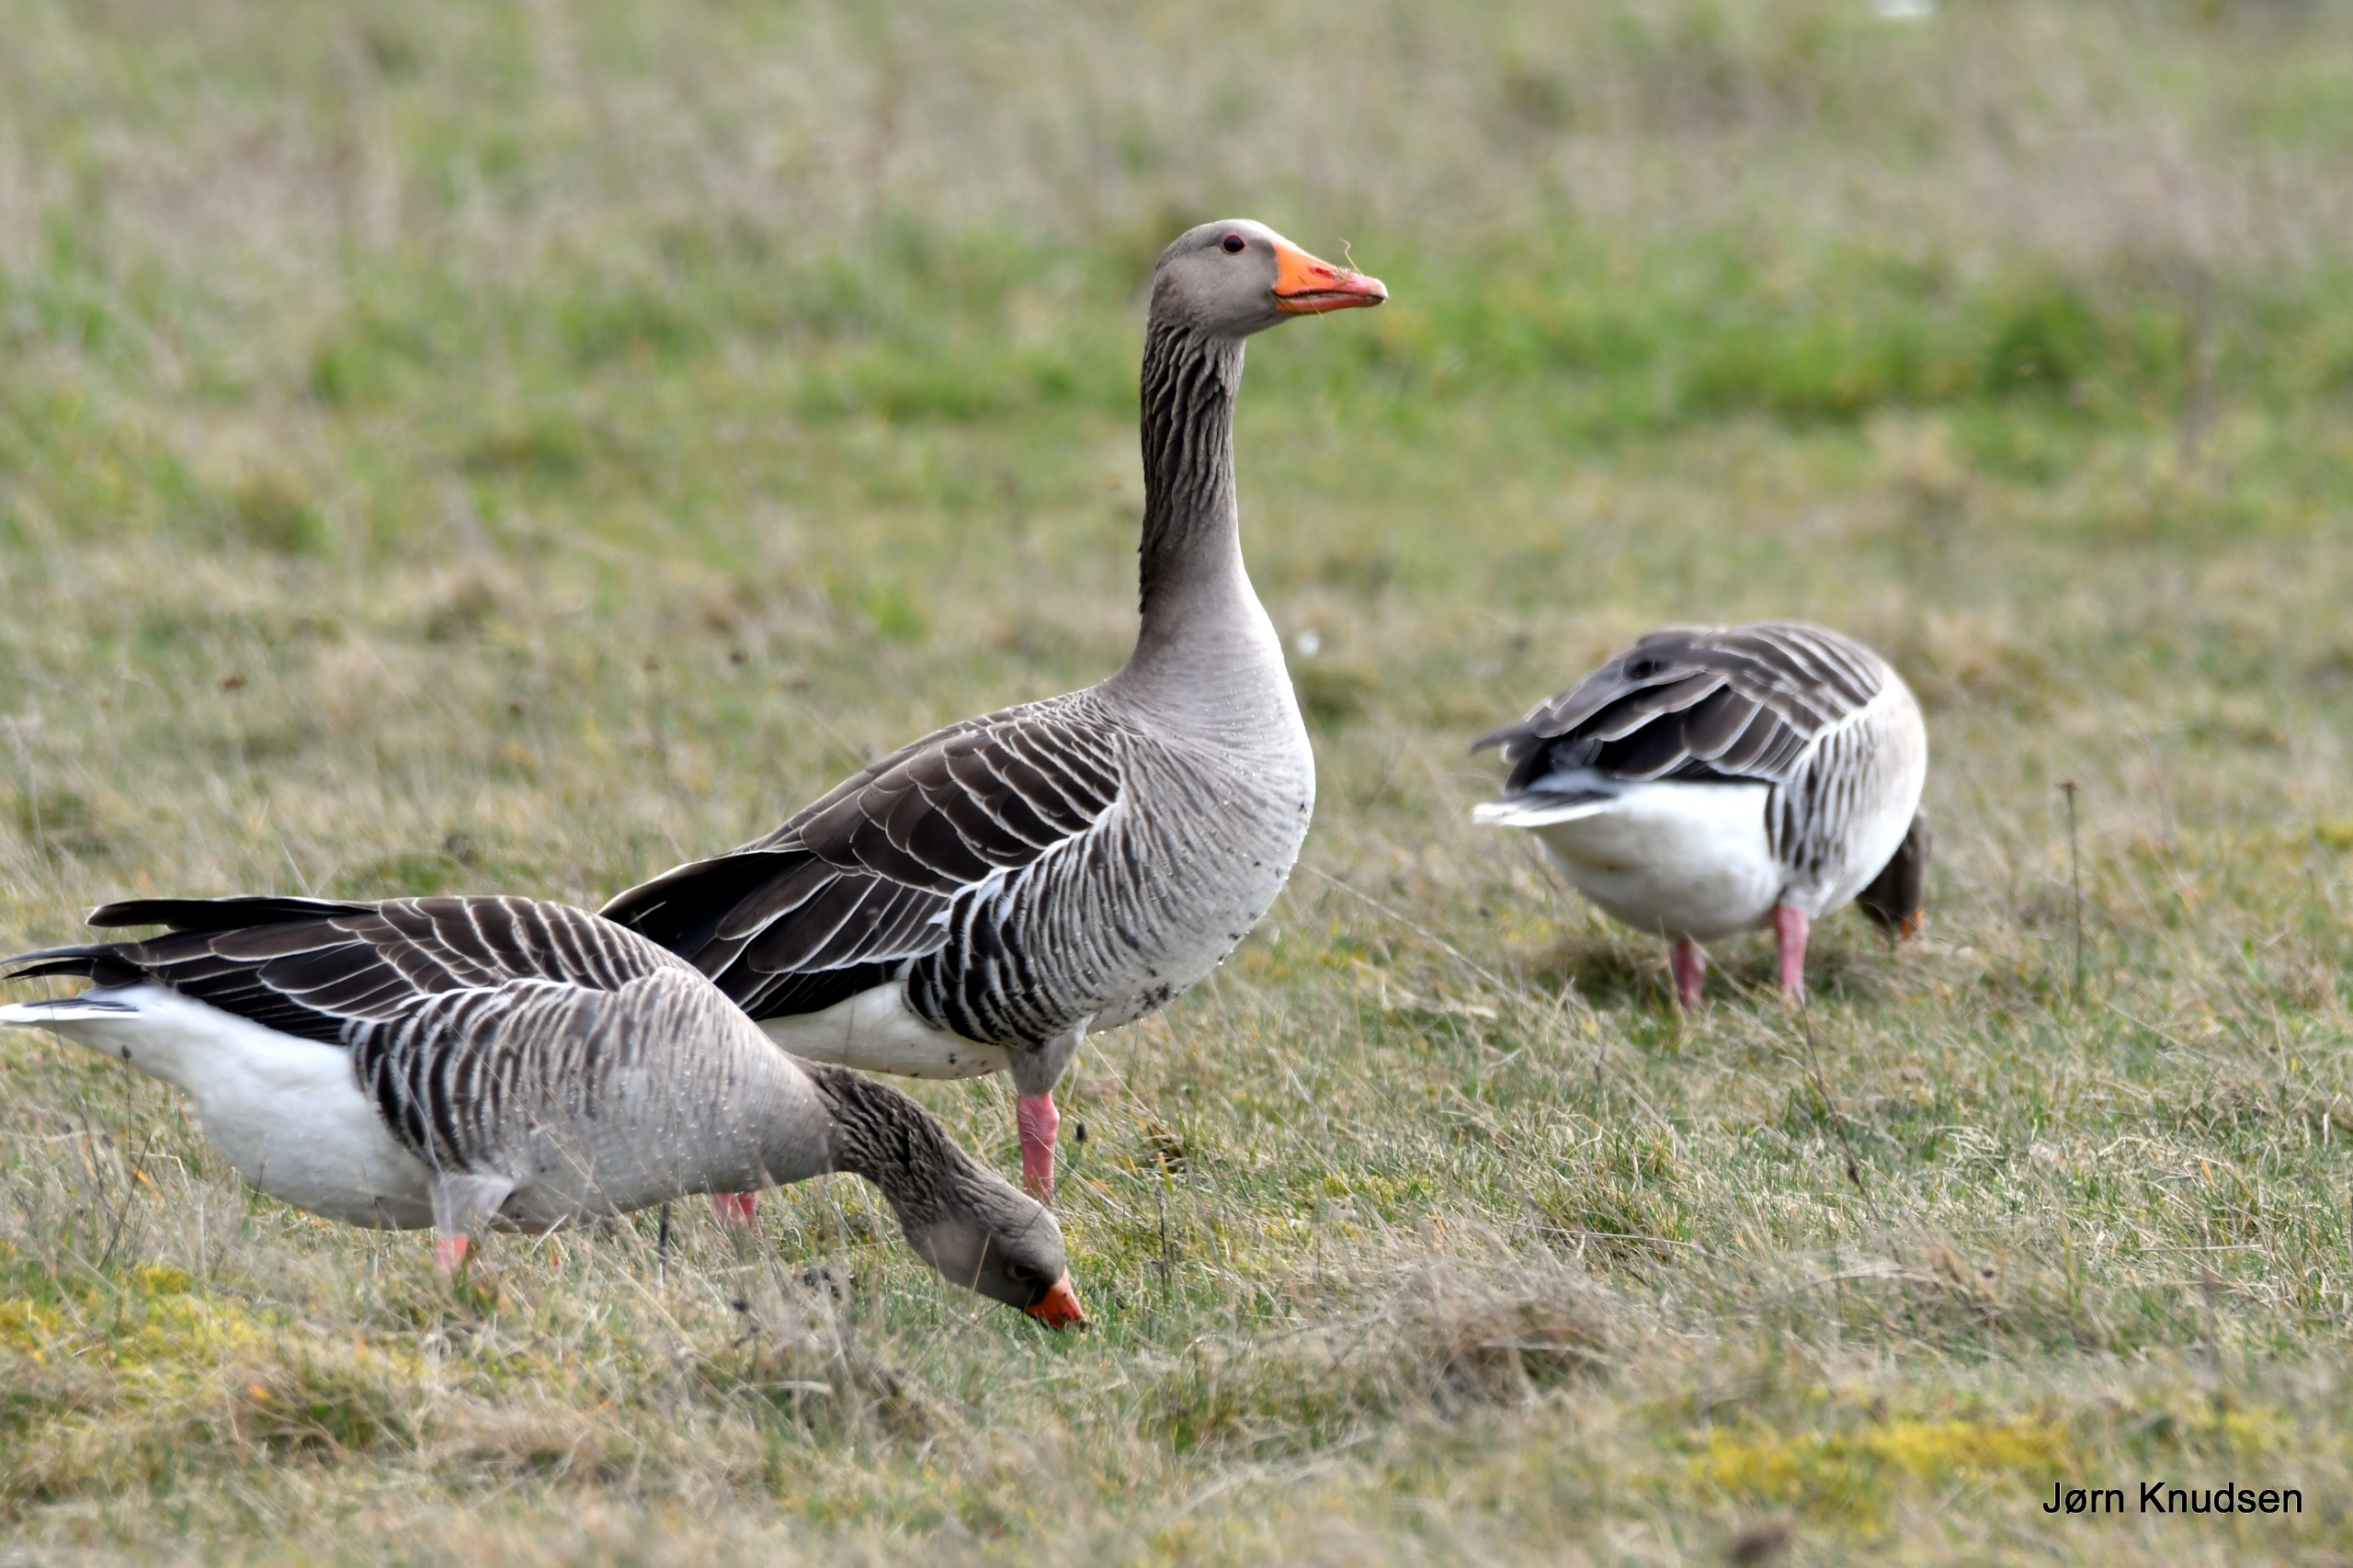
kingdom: Animalia
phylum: Chordata
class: Aves
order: Anseriformes
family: Anatidae
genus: Anser
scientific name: Anser anser
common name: Grågås
